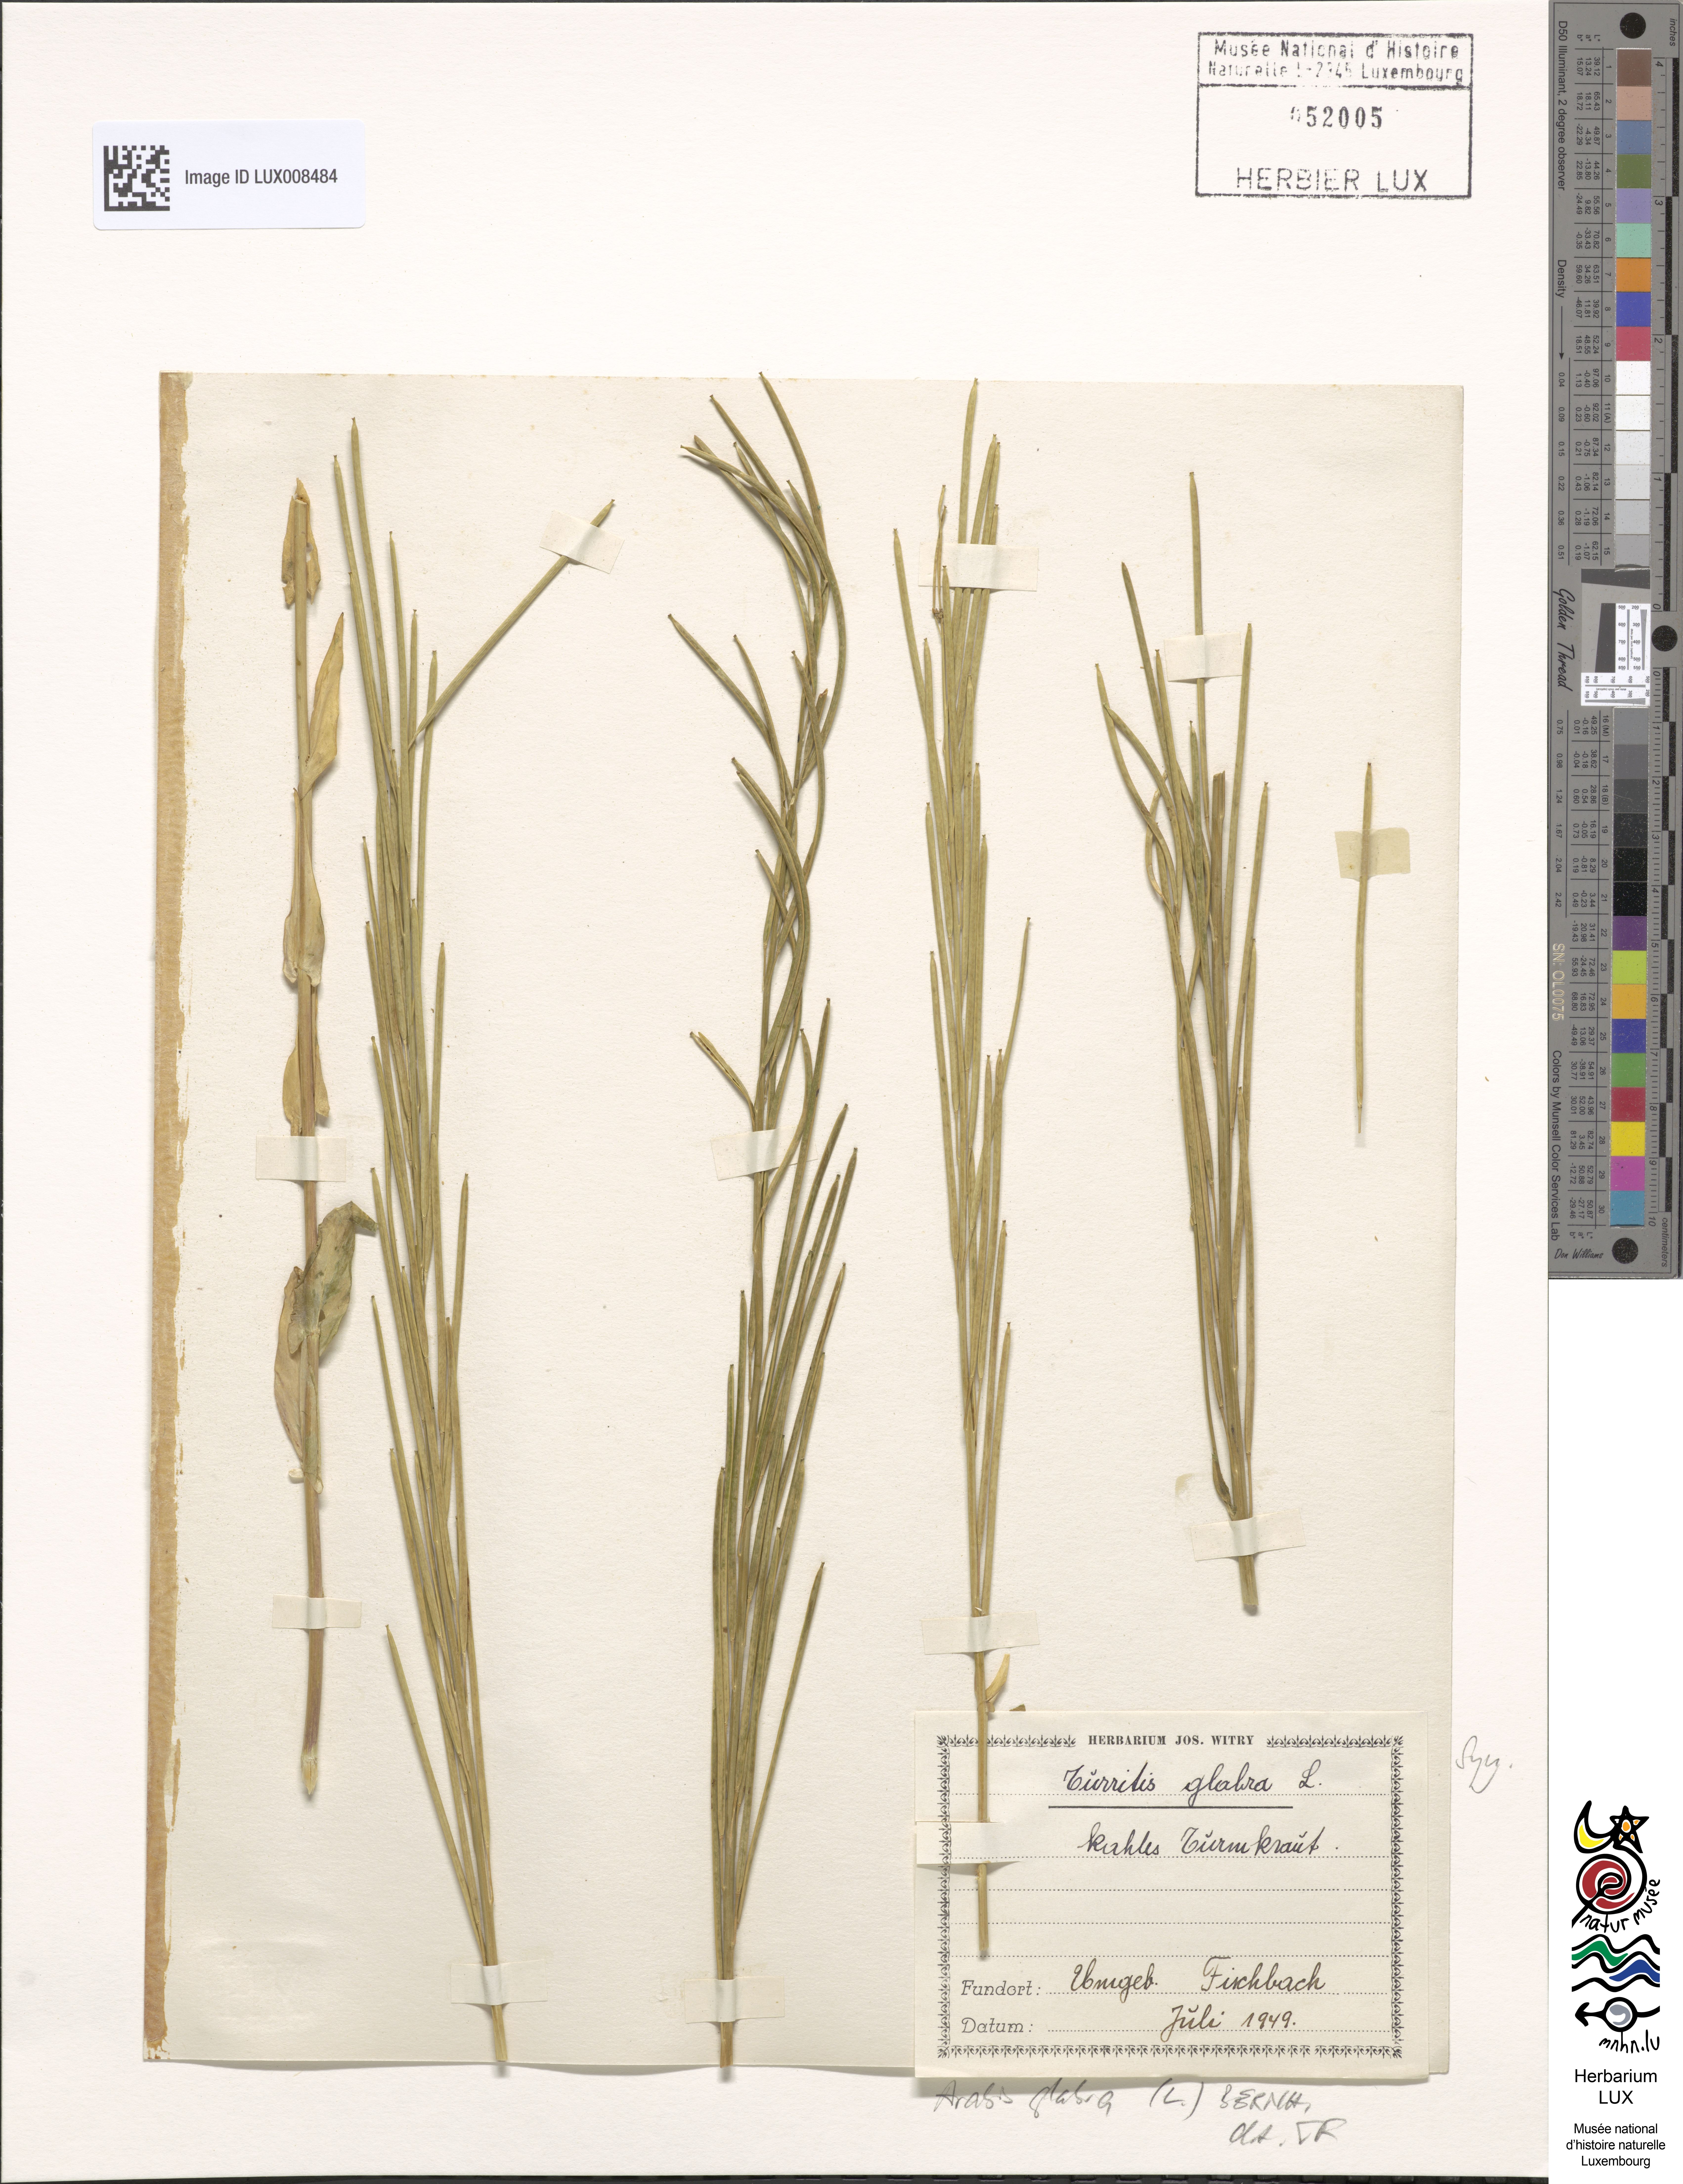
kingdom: Plantae
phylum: Tracheophyta
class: Magnoliopsida
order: Brassicales
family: Brassicaceae
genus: Turritis
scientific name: Turritis glabra
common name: Tower rockcress
